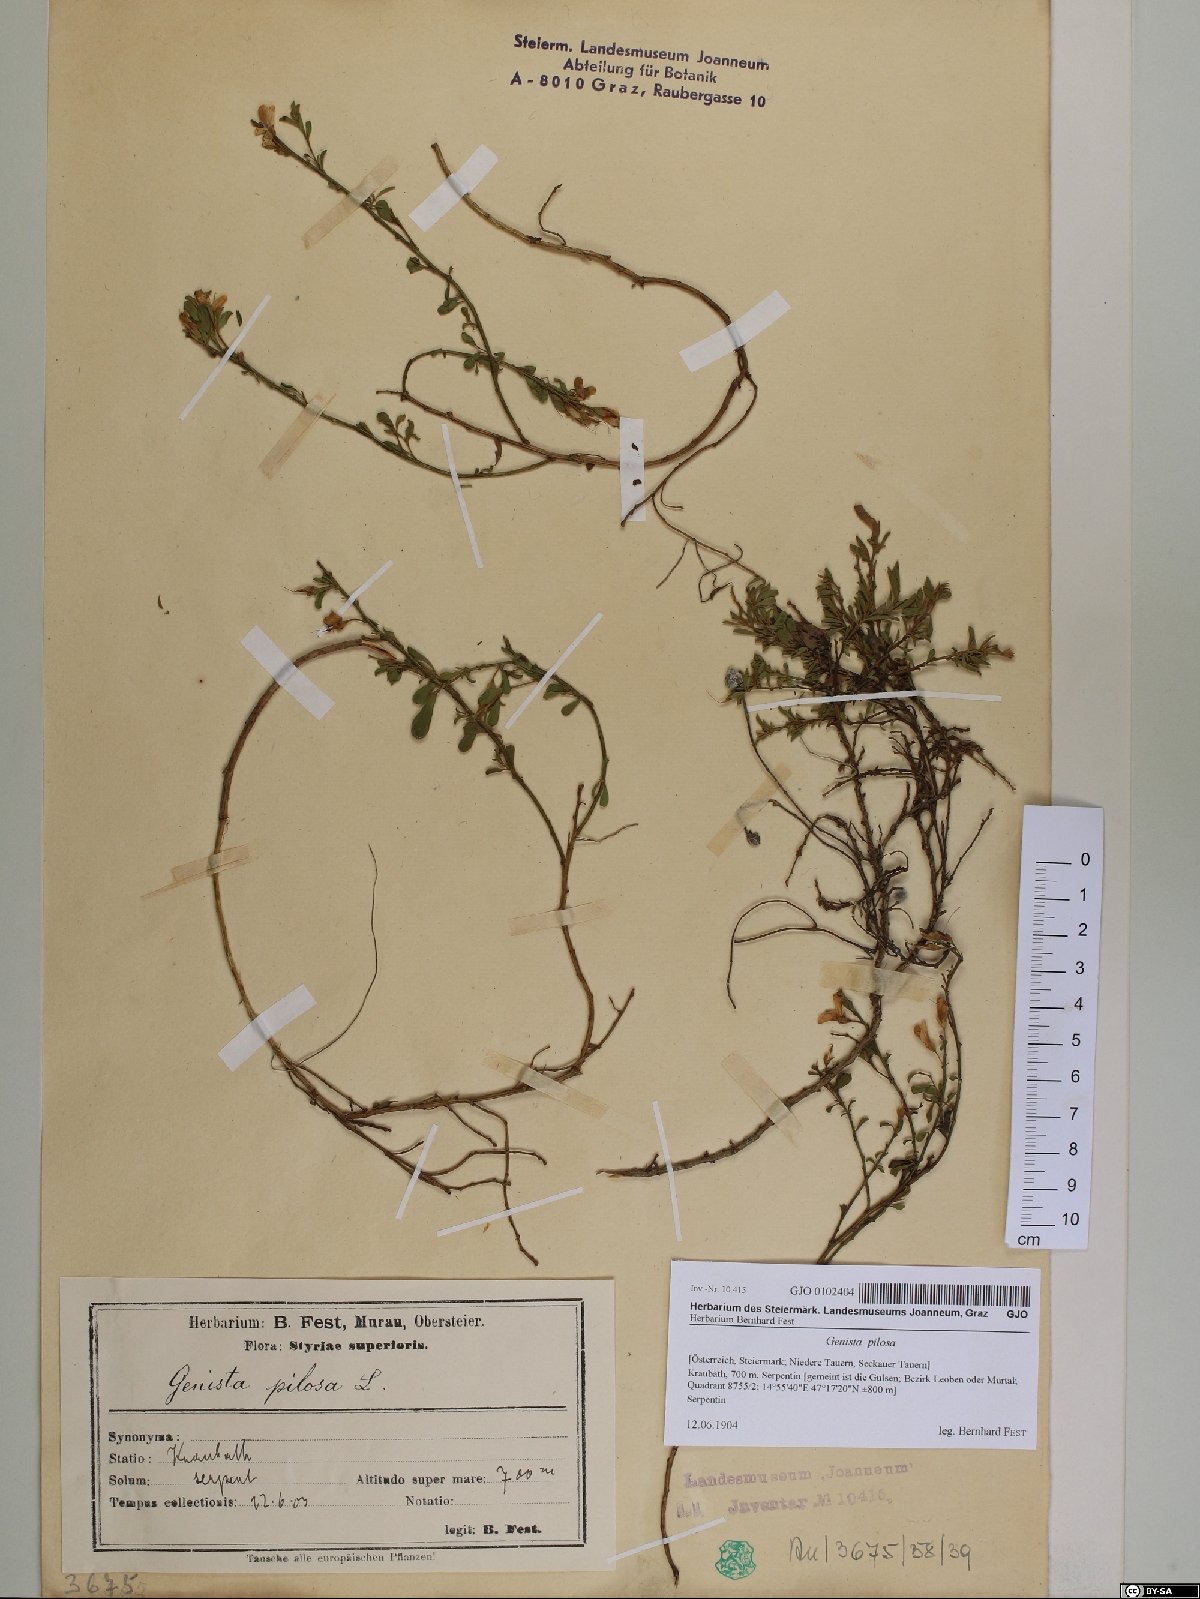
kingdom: Plantae
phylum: Tracheophyta
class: Magnoliopsida
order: Fabales
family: Fabaceae
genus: Genista
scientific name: Genista pilosa
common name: Hairy greenweed
